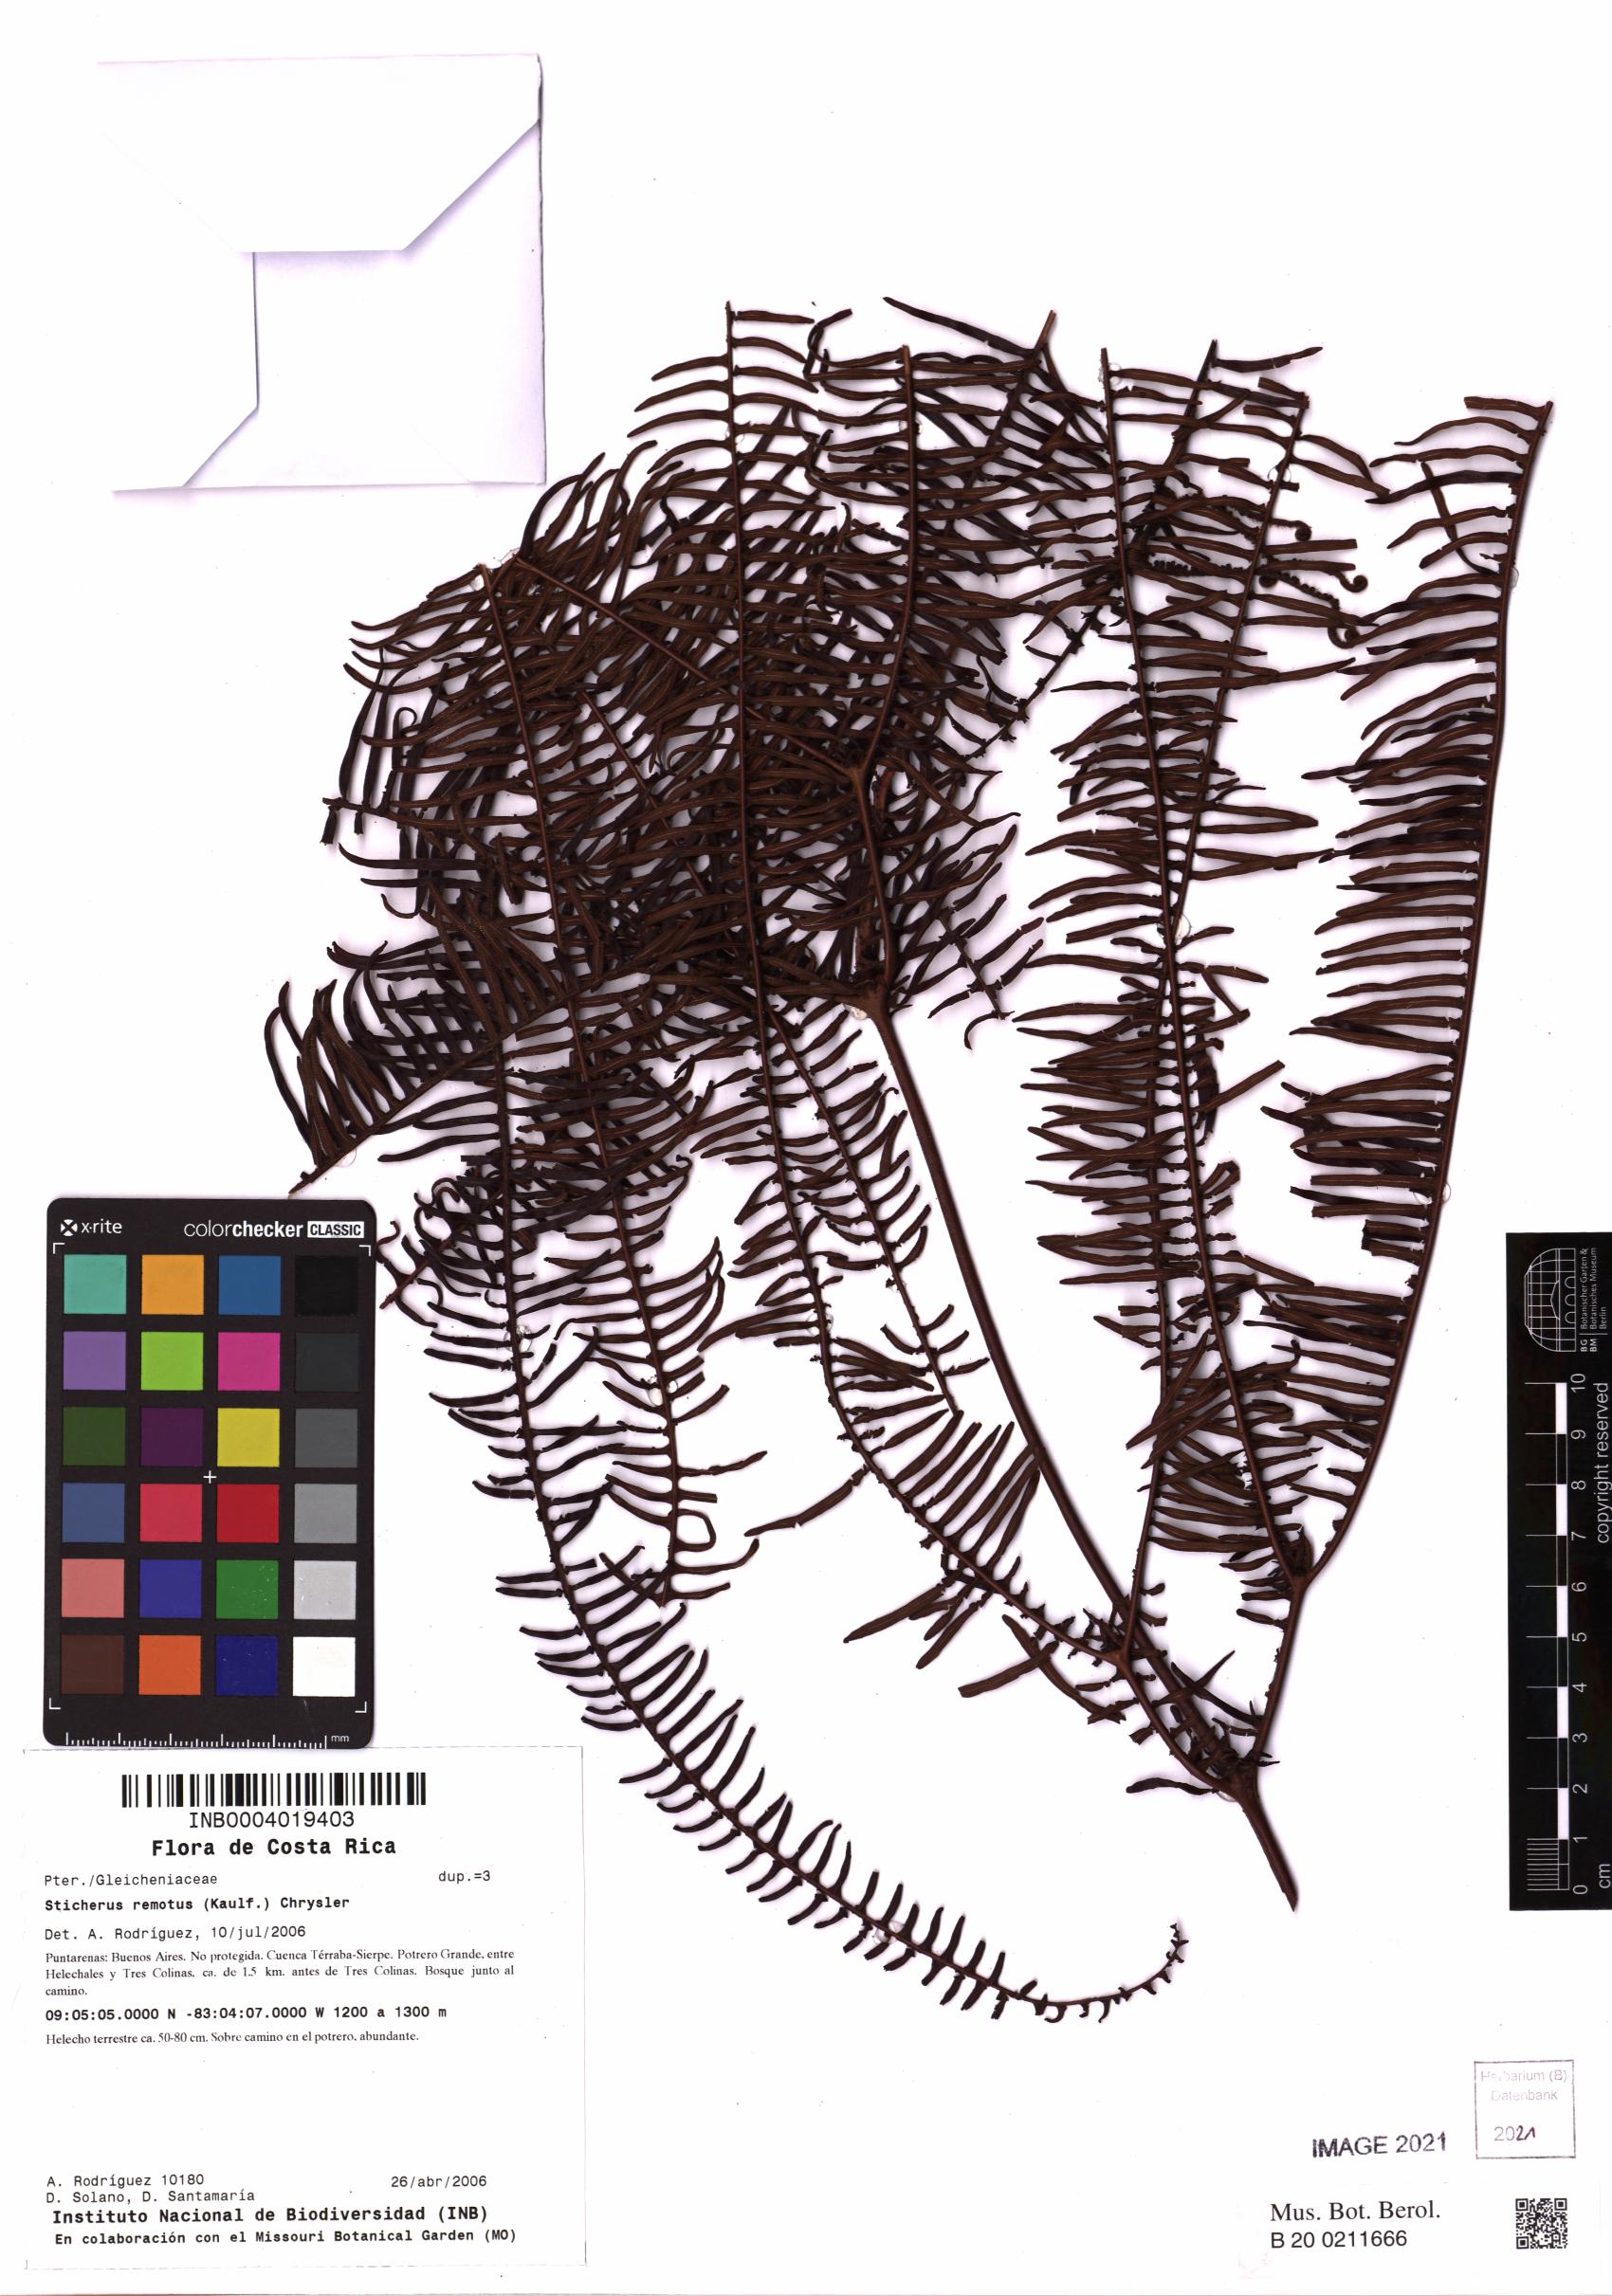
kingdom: Plantae
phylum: Tracheophyta
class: Polypodiopsida
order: Gleicheniales
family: Gleicheniaceae
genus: Sticherus
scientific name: Sticherus remotus
